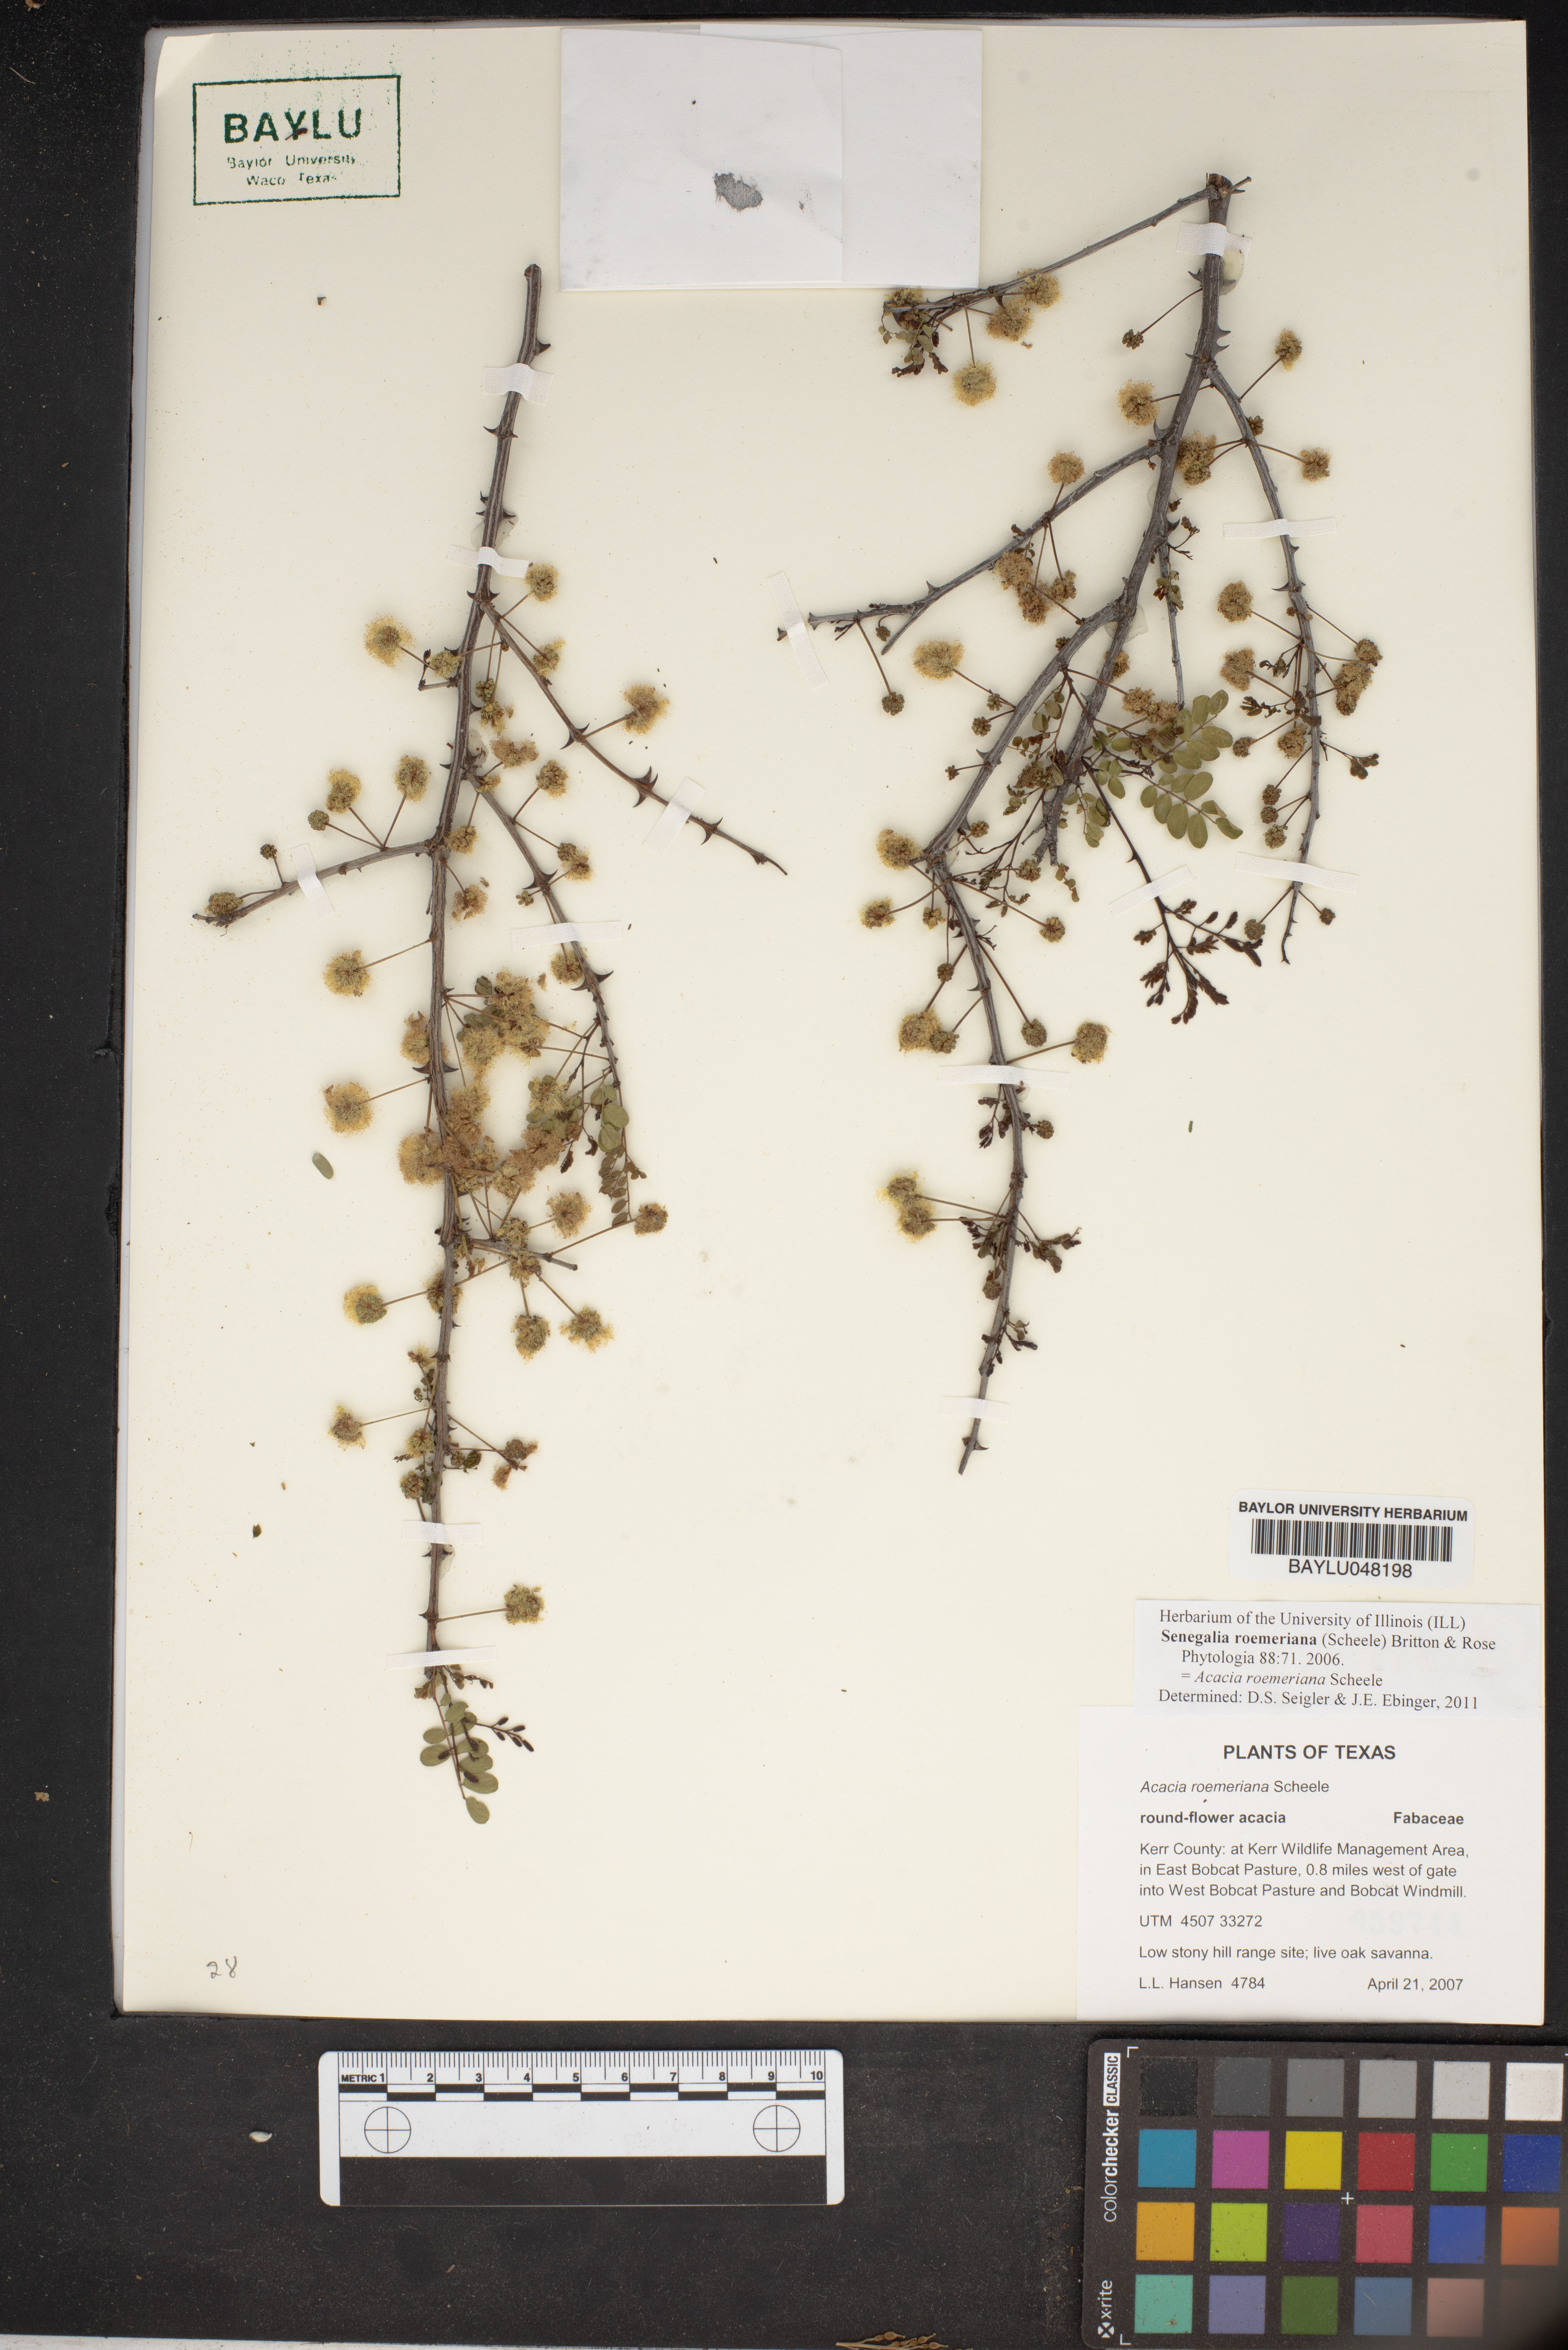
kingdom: Plantae
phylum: Tracheophyta
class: Magnoliopsida
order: Fabales
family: Fabaceae
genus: Senegalia
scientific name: Senegalia roemeriana
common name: Roemer's acacia
